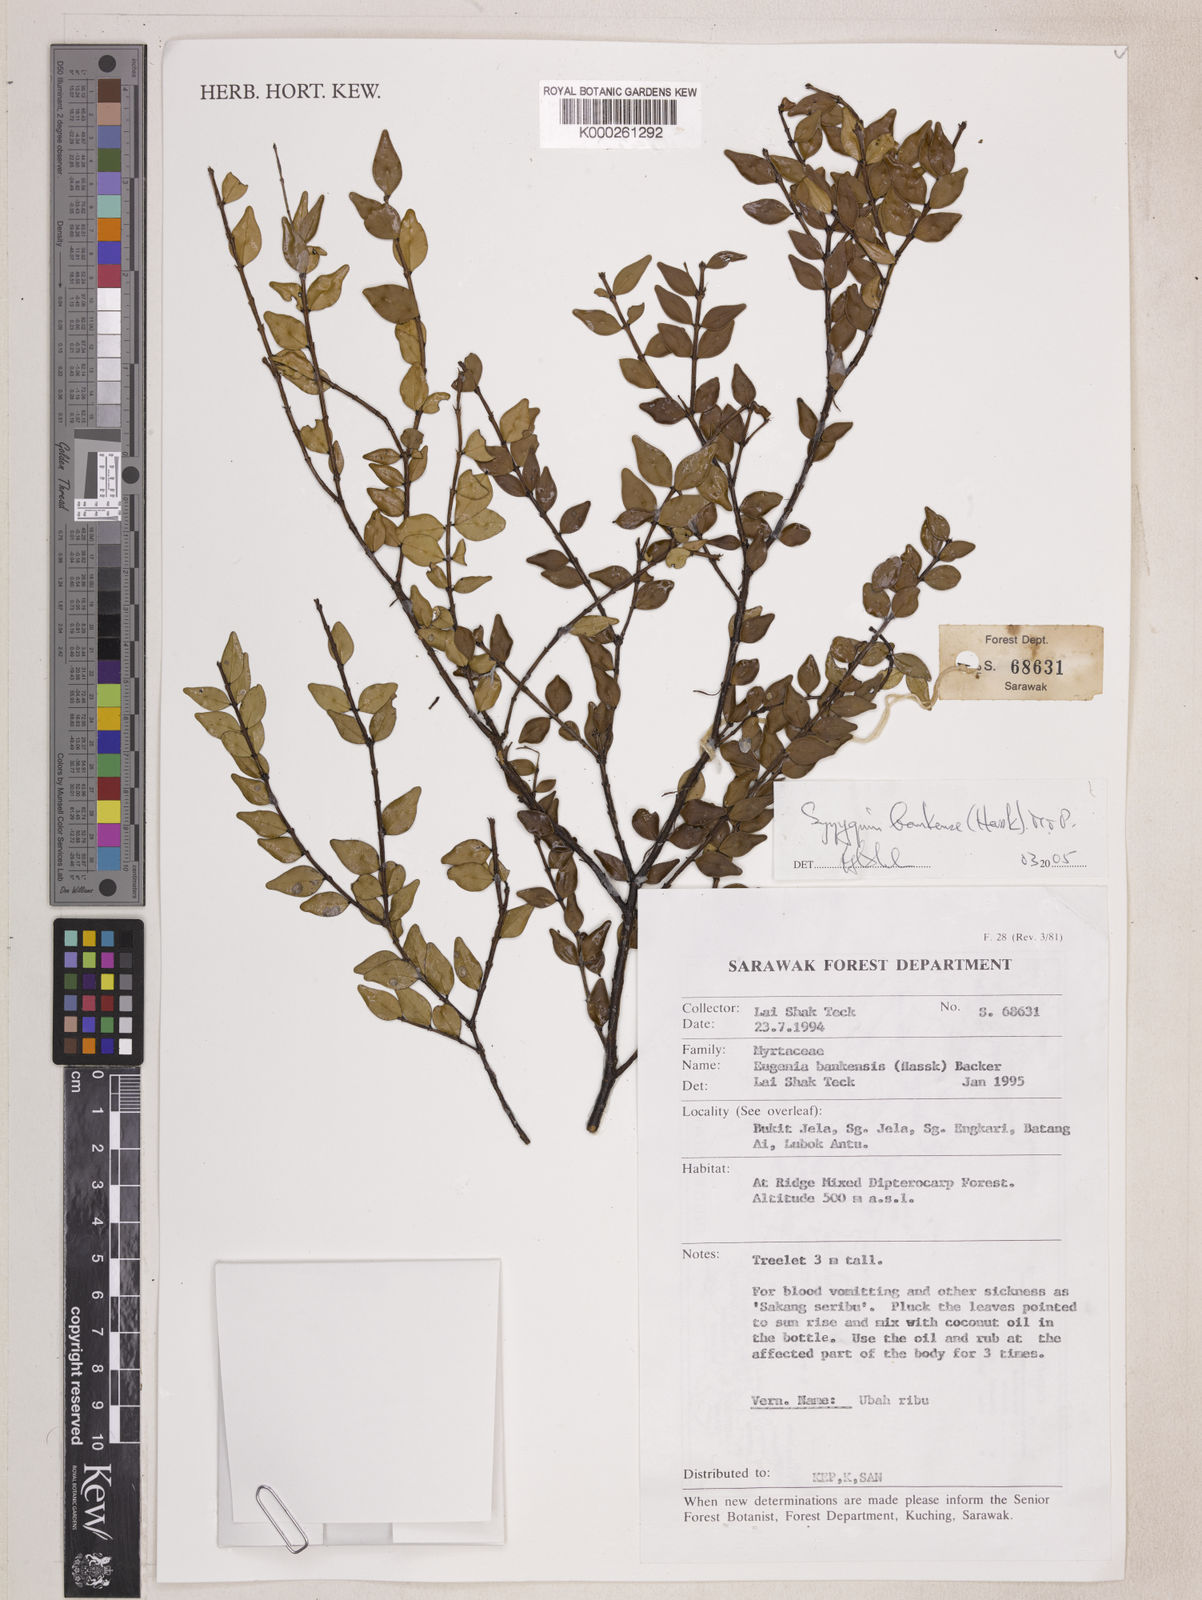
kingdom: Plantae
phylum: Tracheophyta
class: Magnoliopsida
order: Myrtales
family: Myrtaceae
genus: Syzygium
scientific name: Syzygium bankense
